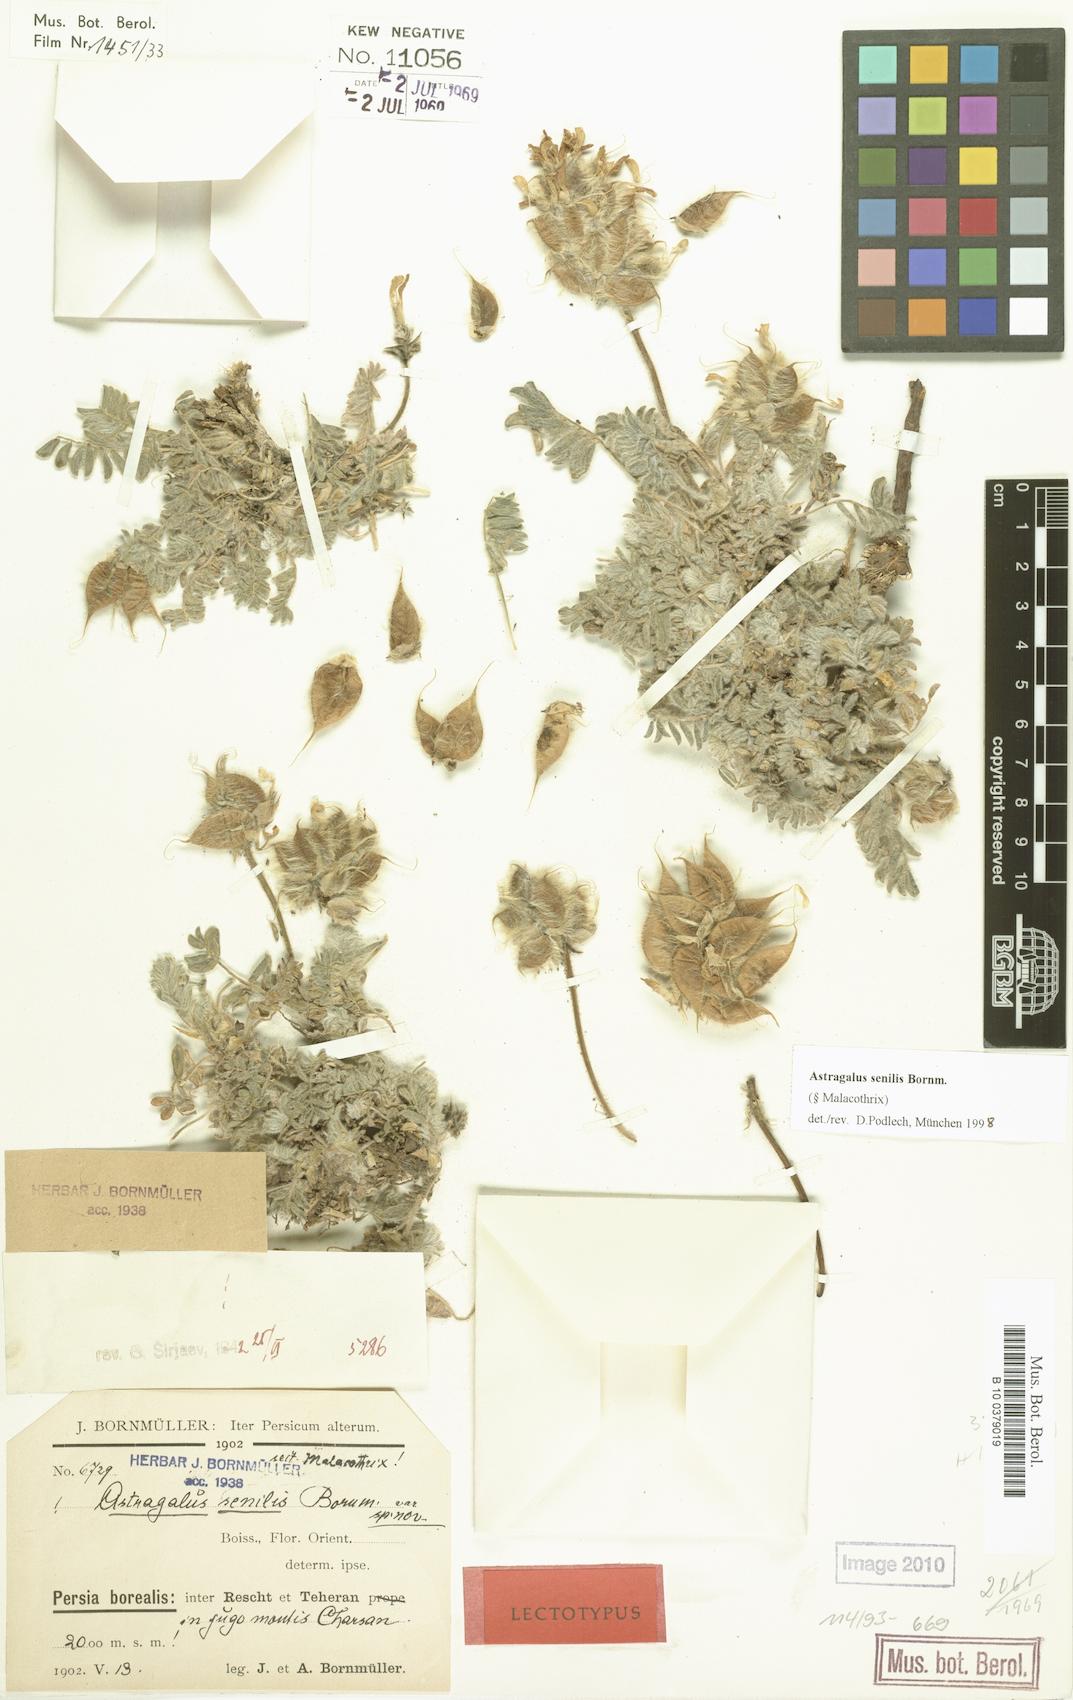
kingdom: Plantae
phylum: Tracheophyta
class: Magnoliopsida
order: Fabales
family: Fabaceae
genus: Astragalus
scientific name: Astragalus senilis
